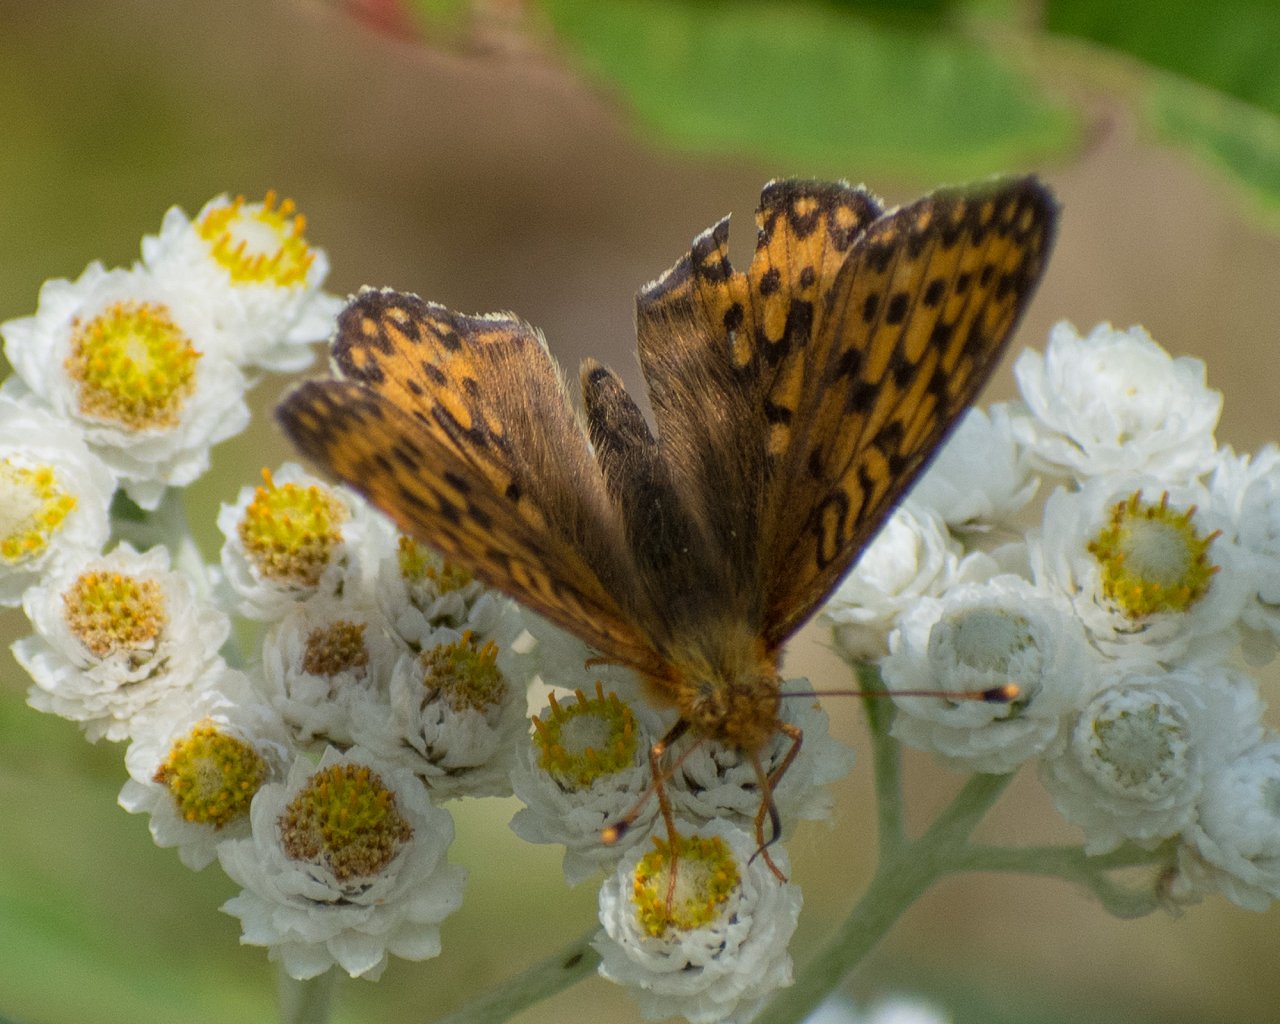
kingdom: Animalia
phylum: Arthropoda
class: Insecta
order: Lepidoptera
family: Nymphalidae
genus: Speyeria
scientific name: Speyeria mormonia
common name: Mormon Fritillary
